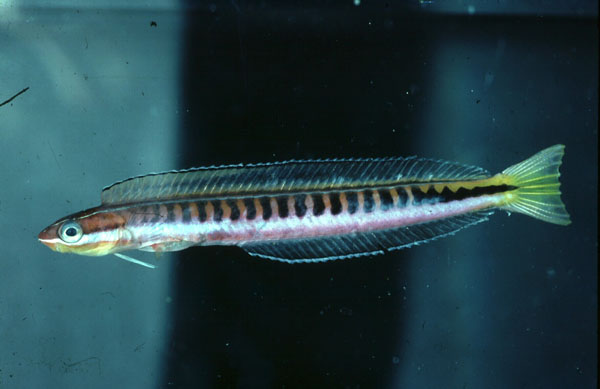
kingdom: Animalia
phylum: Chordata
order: Perciformes
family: Blenniidae
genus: Plagiotremus
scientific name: Plagiotremus tapeinosoma
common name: Hit and run blenny
